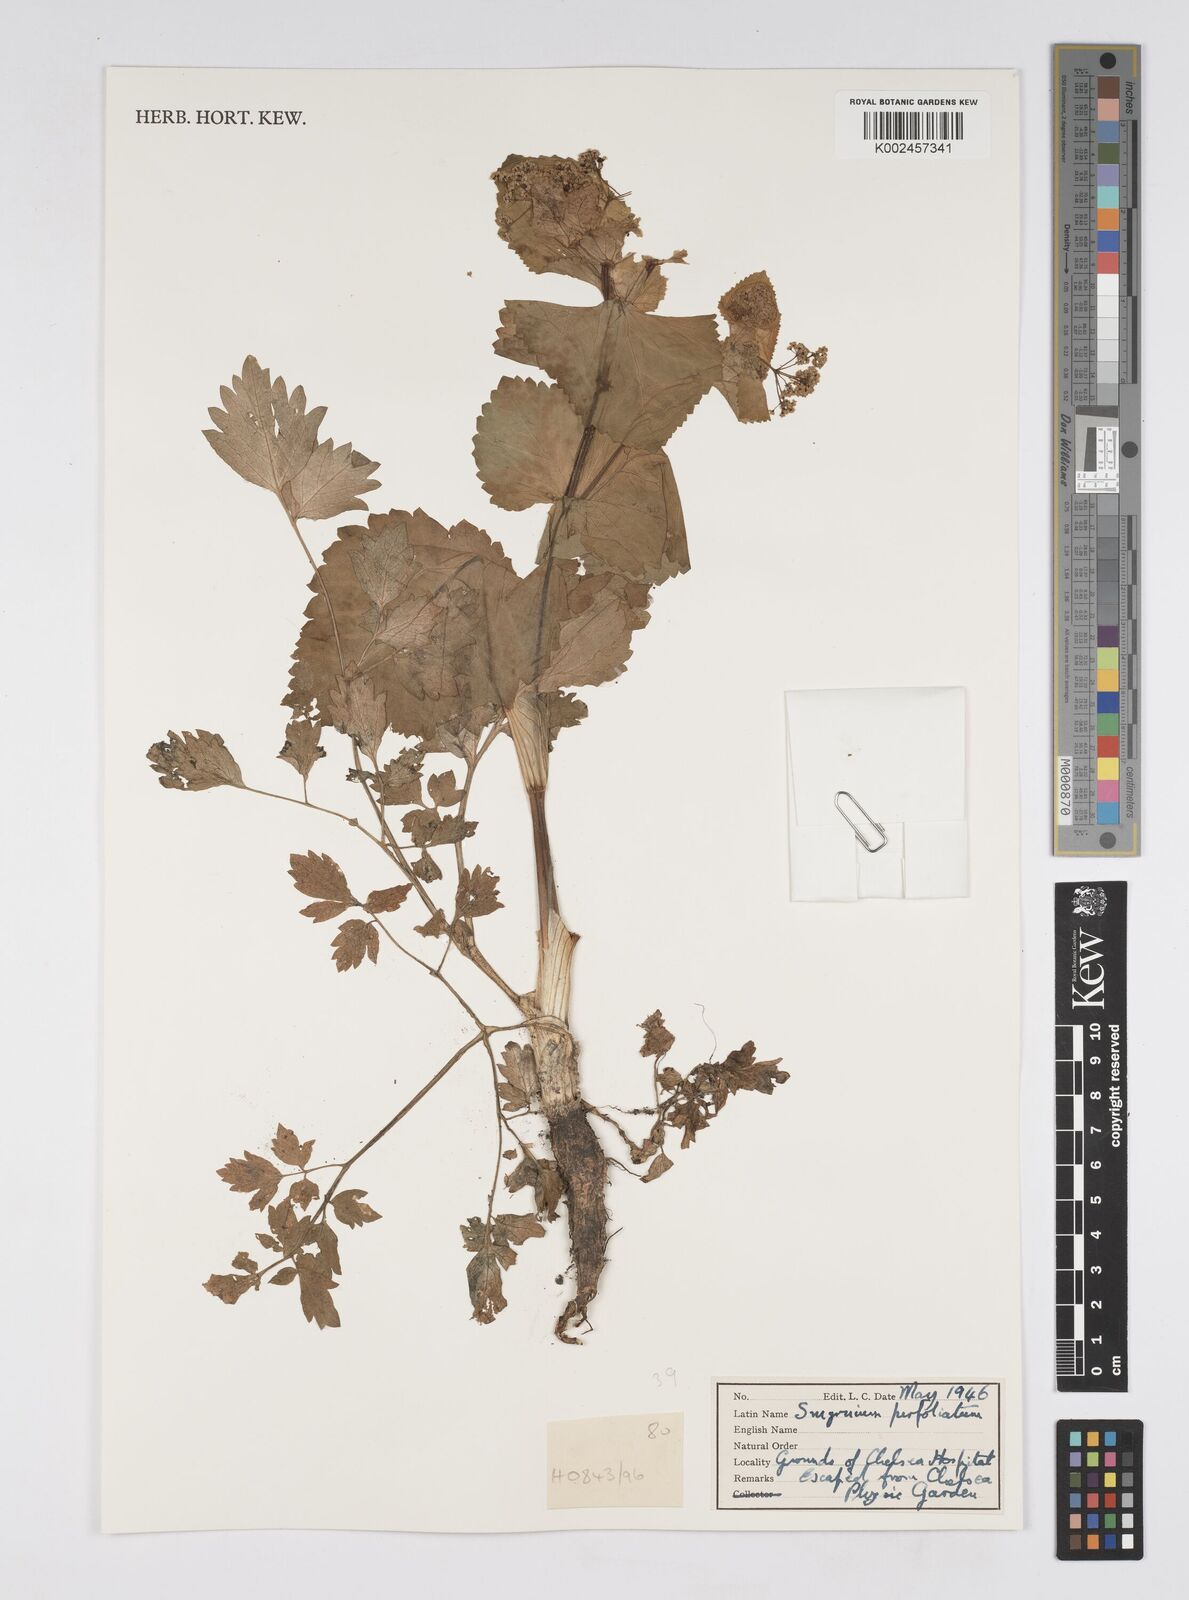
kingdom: Plantae
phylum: Tracheophyta
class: Magnoliopsida
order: Apiales
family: Apiaceae
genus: Smyrnium
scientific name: Smyrnium perfoliatum
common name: Perfoliate alexanders
